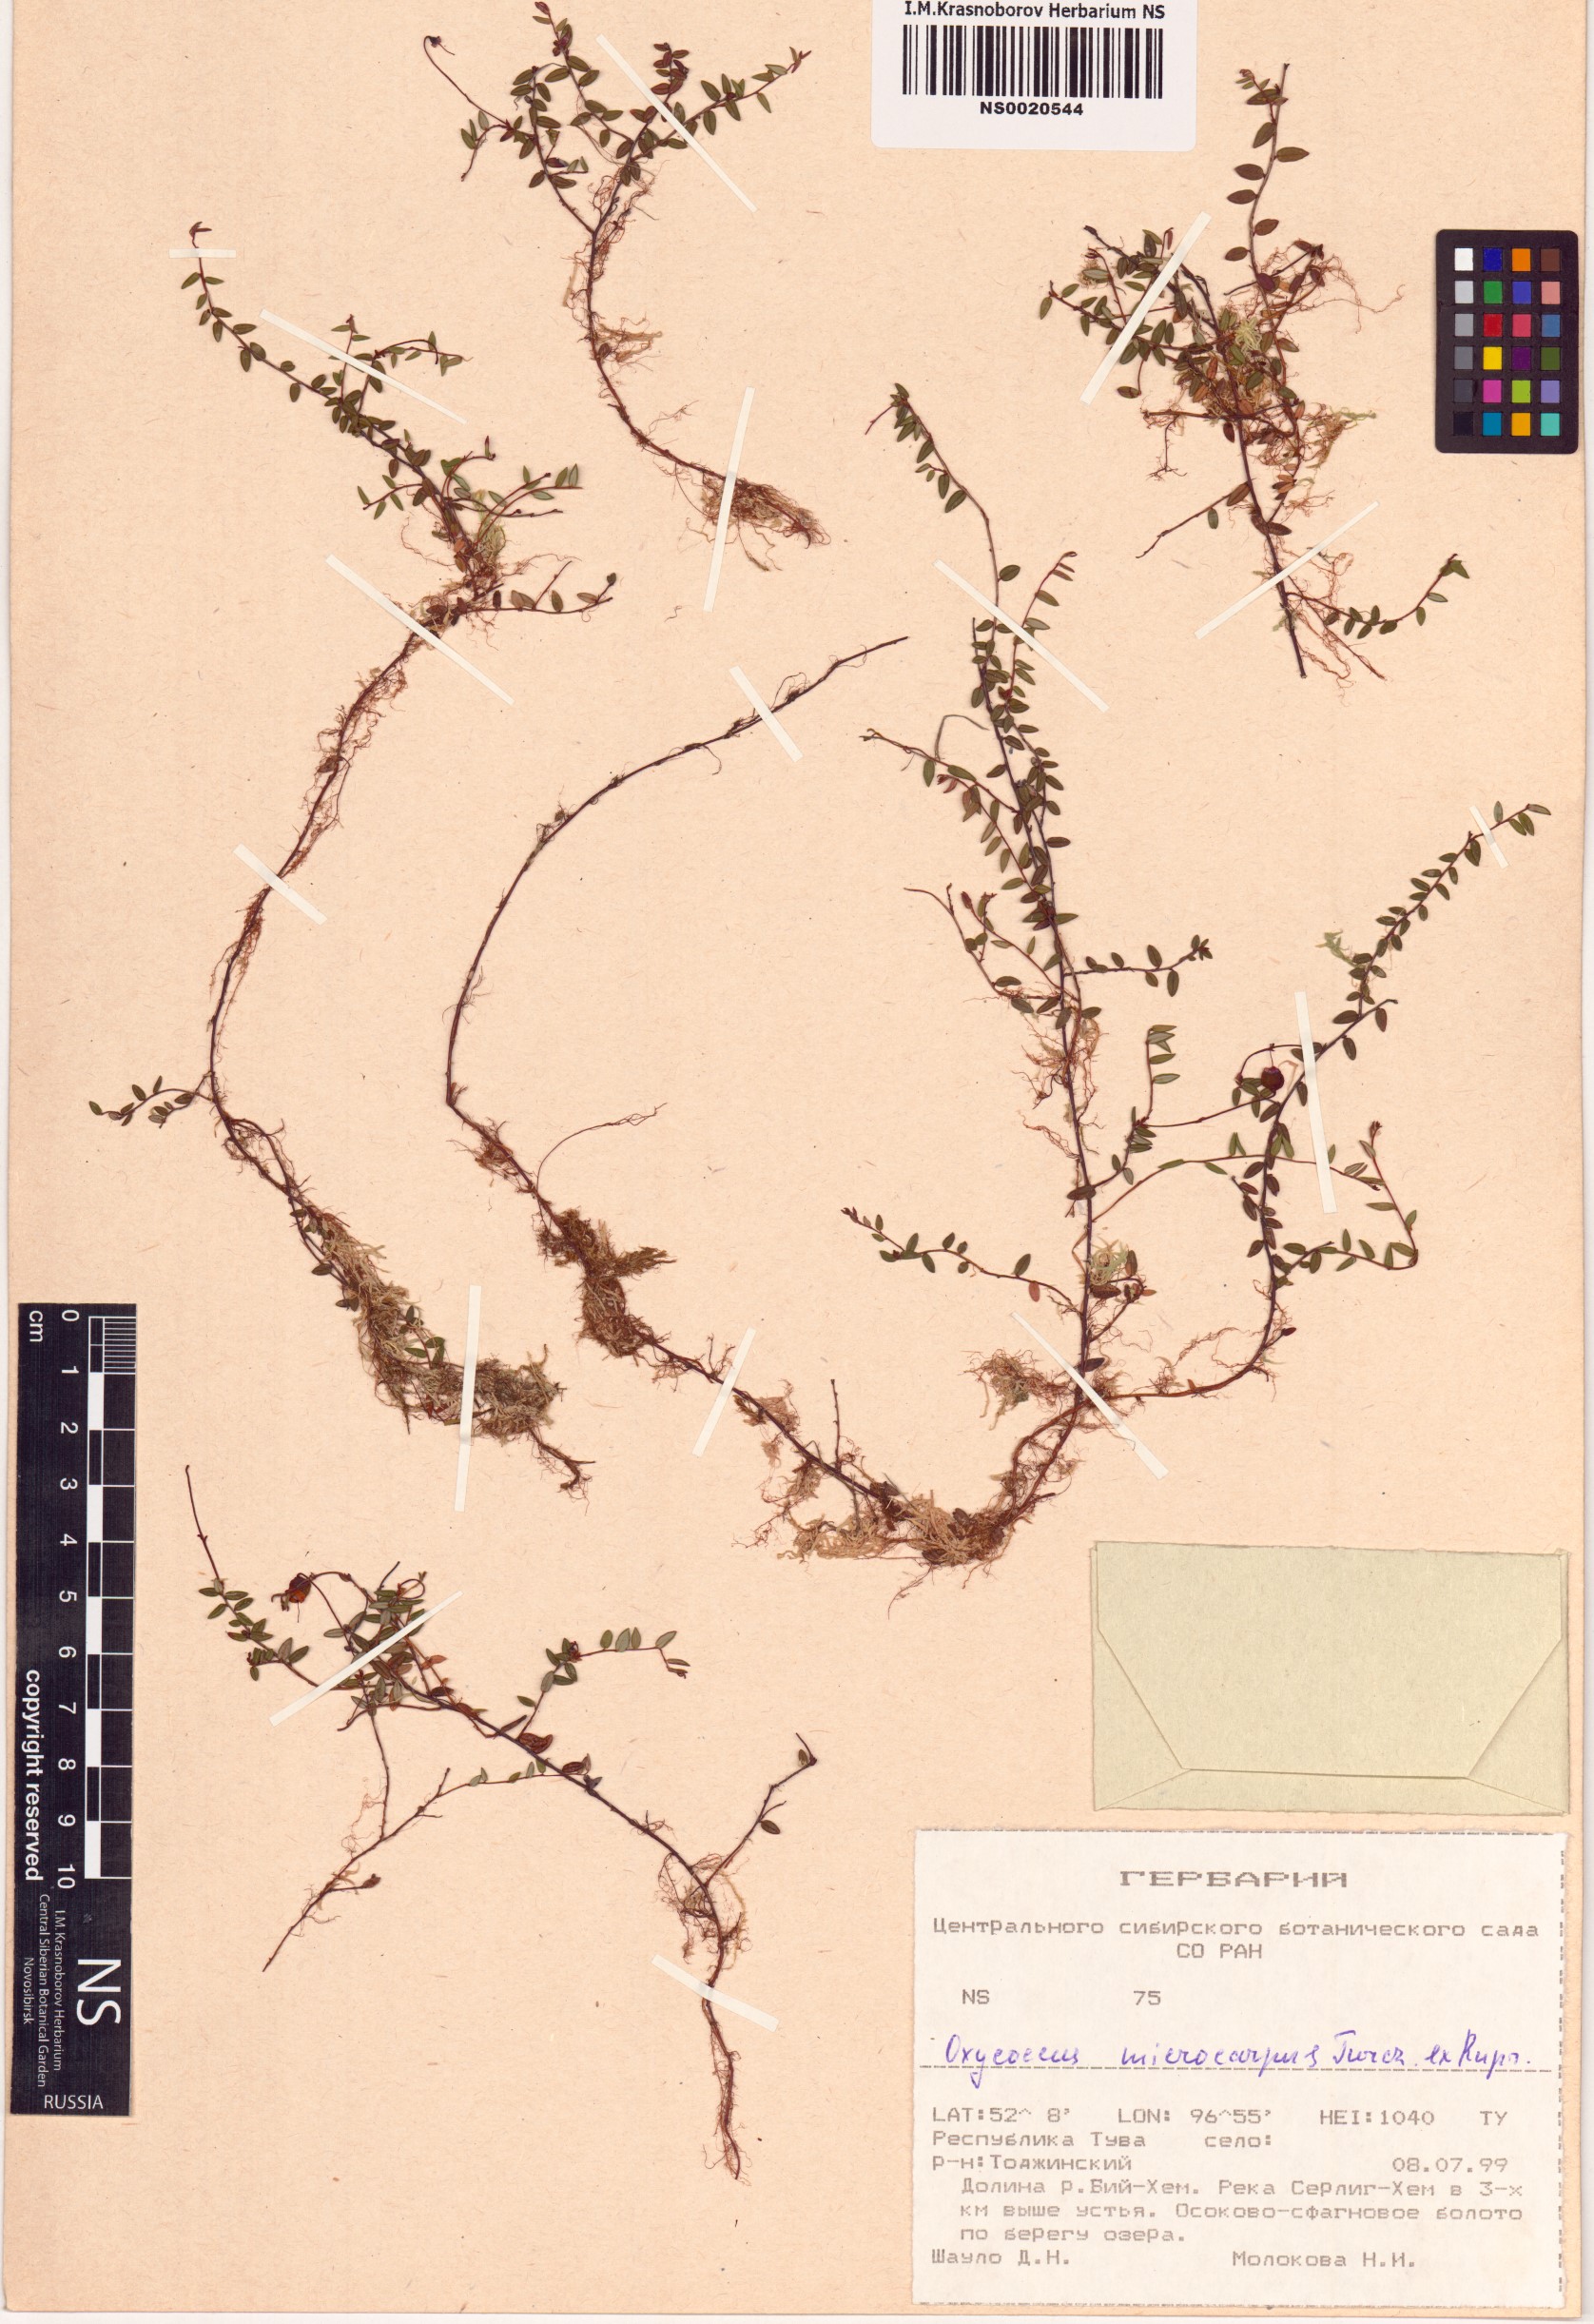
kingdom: Plantae
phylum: Tracheophyta
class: Magnoliopsida
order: Ericales
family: Ericaceae
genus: Vaccinium
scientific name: Vaccinium microcarpum
